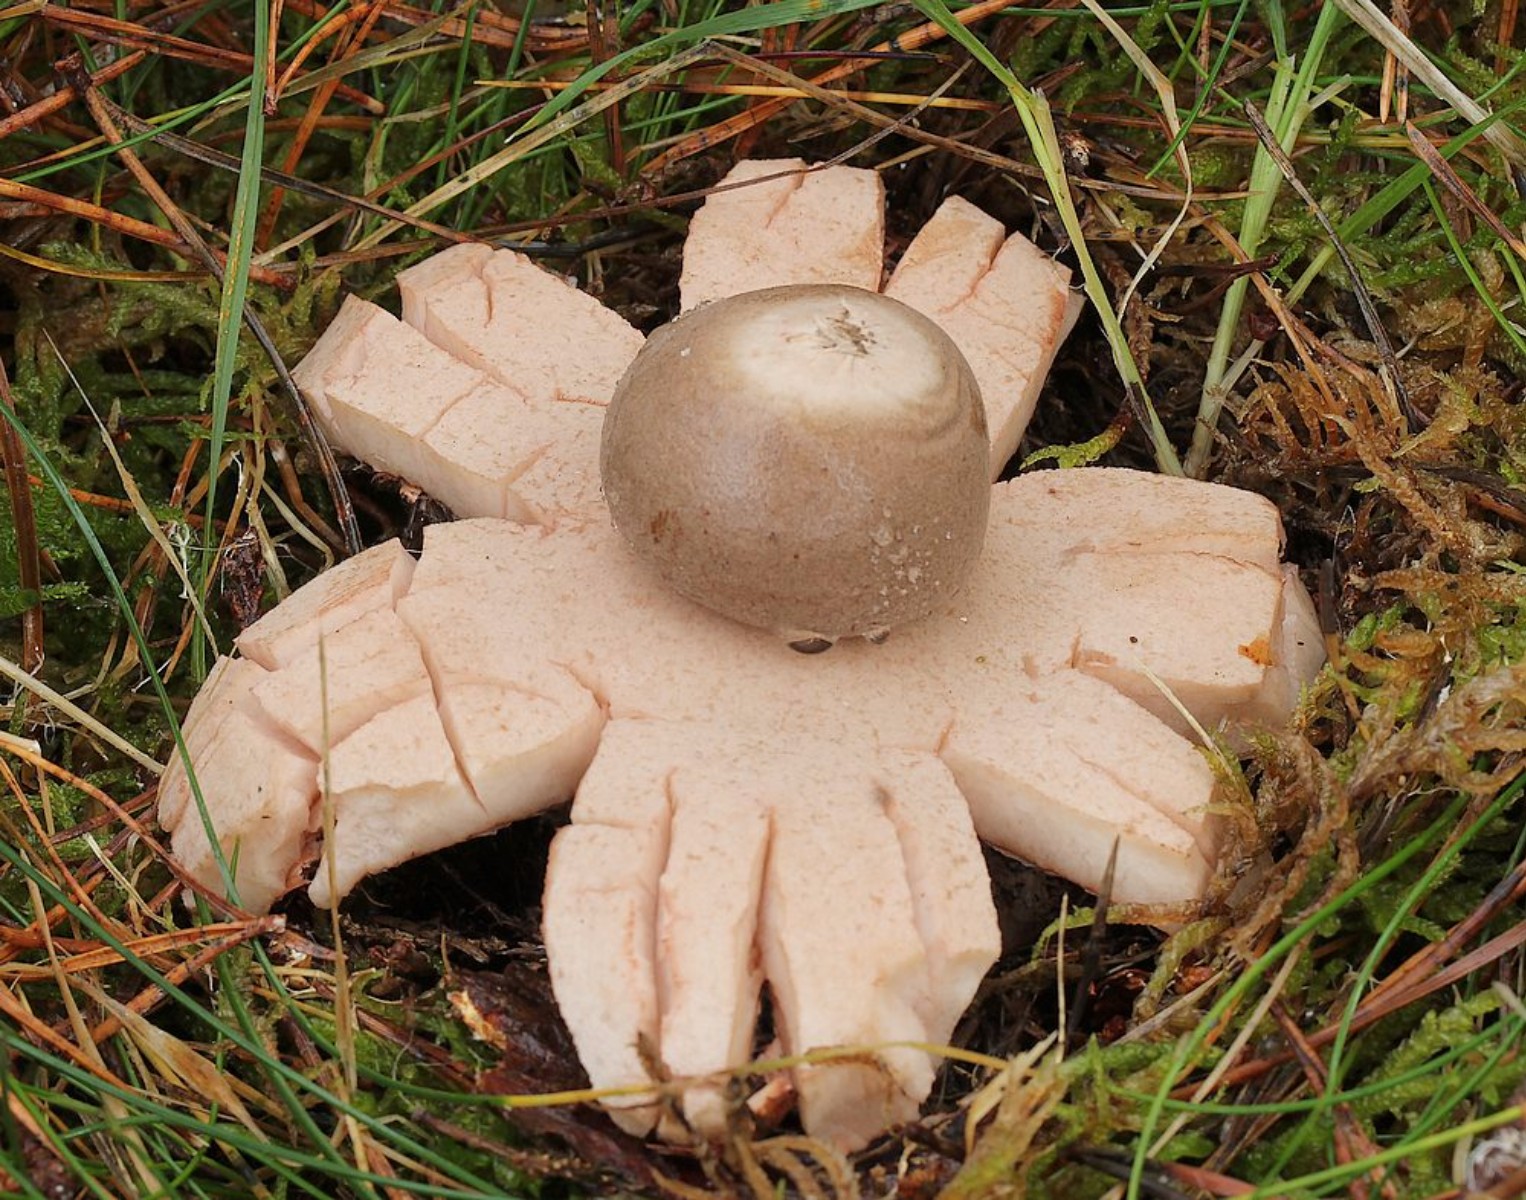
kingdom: Fungi
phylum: Basidiomycota
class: Agaricomycetes
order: Geastrales
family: Geastraceae
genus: Geastrum
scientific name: Geastrum rufescens
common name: kødfarvet stjernebold
